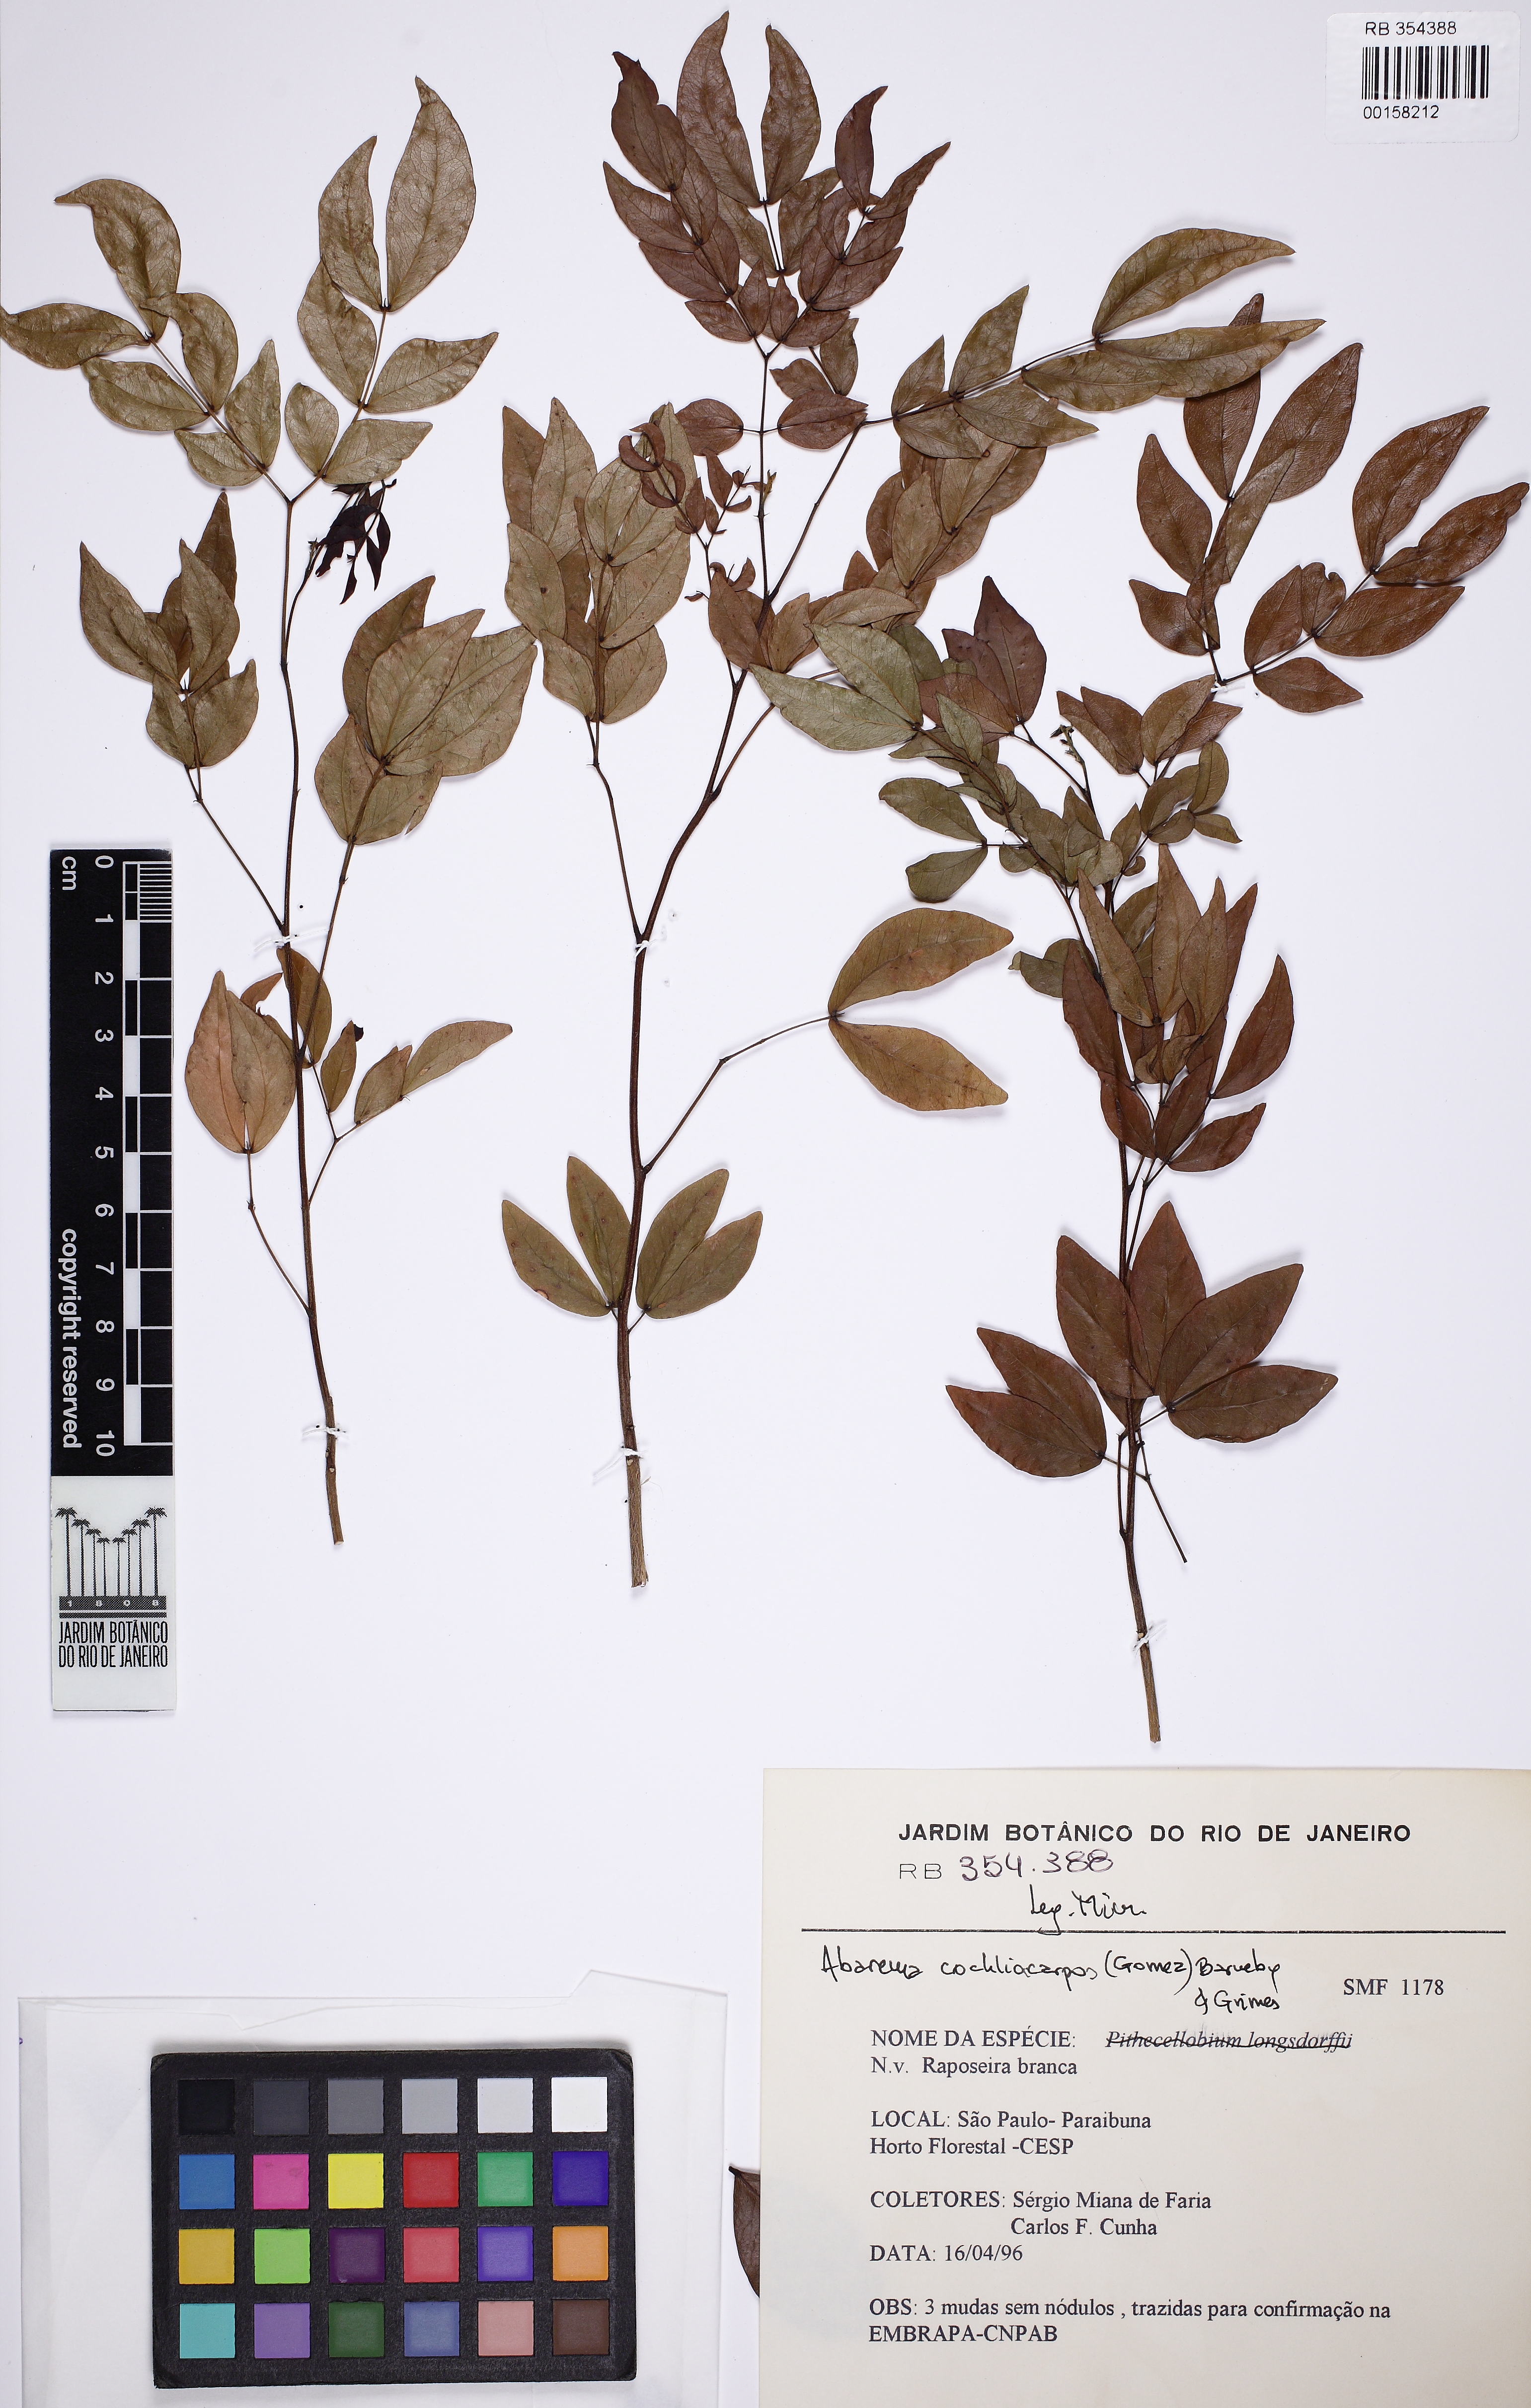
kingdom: Plantae
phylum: Tracheophyta
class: Magnoliopsida
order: Fabales
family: Fabaceae
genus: Abarema
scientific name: Abarema cochliacarpos
